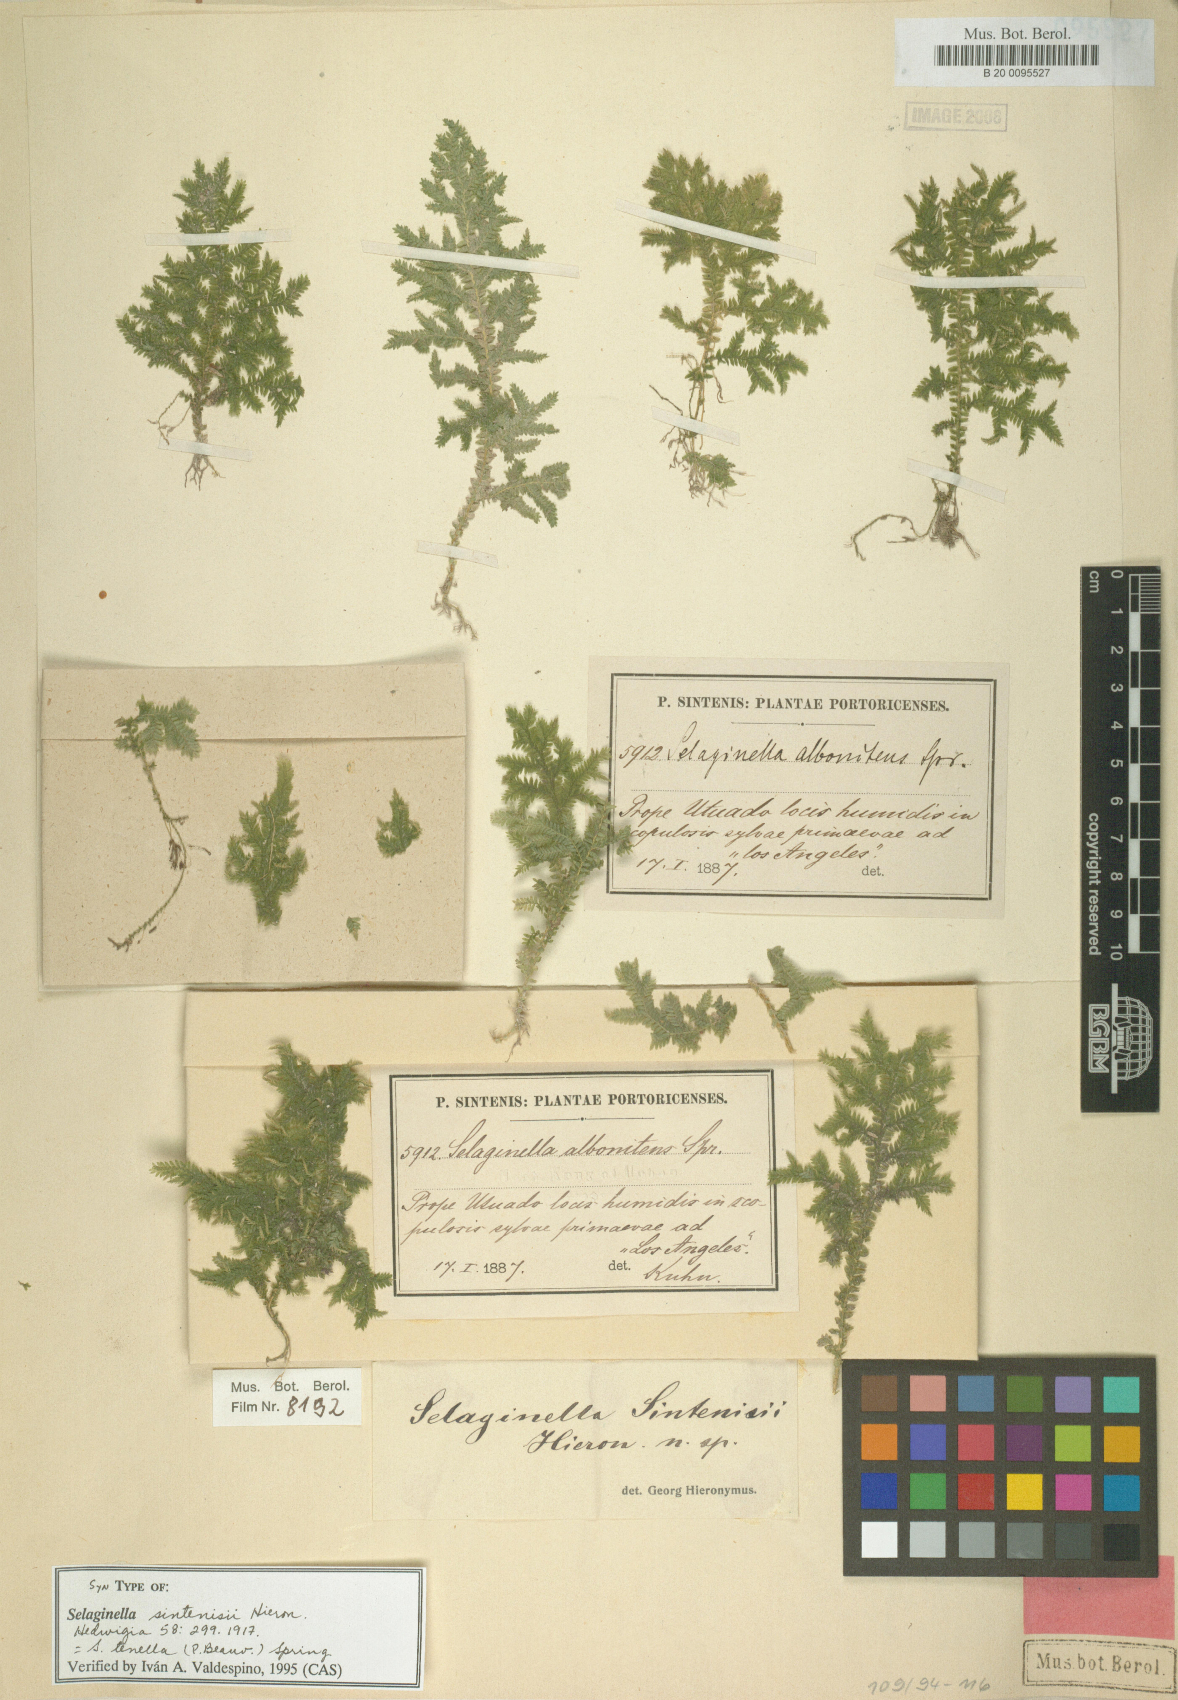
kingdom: Plantae
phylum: Tracheophyta
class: Lycopodiopsida
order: Selaginellales
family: Selaginellaceae
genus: Selaginella
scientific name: Selaginella tenella
